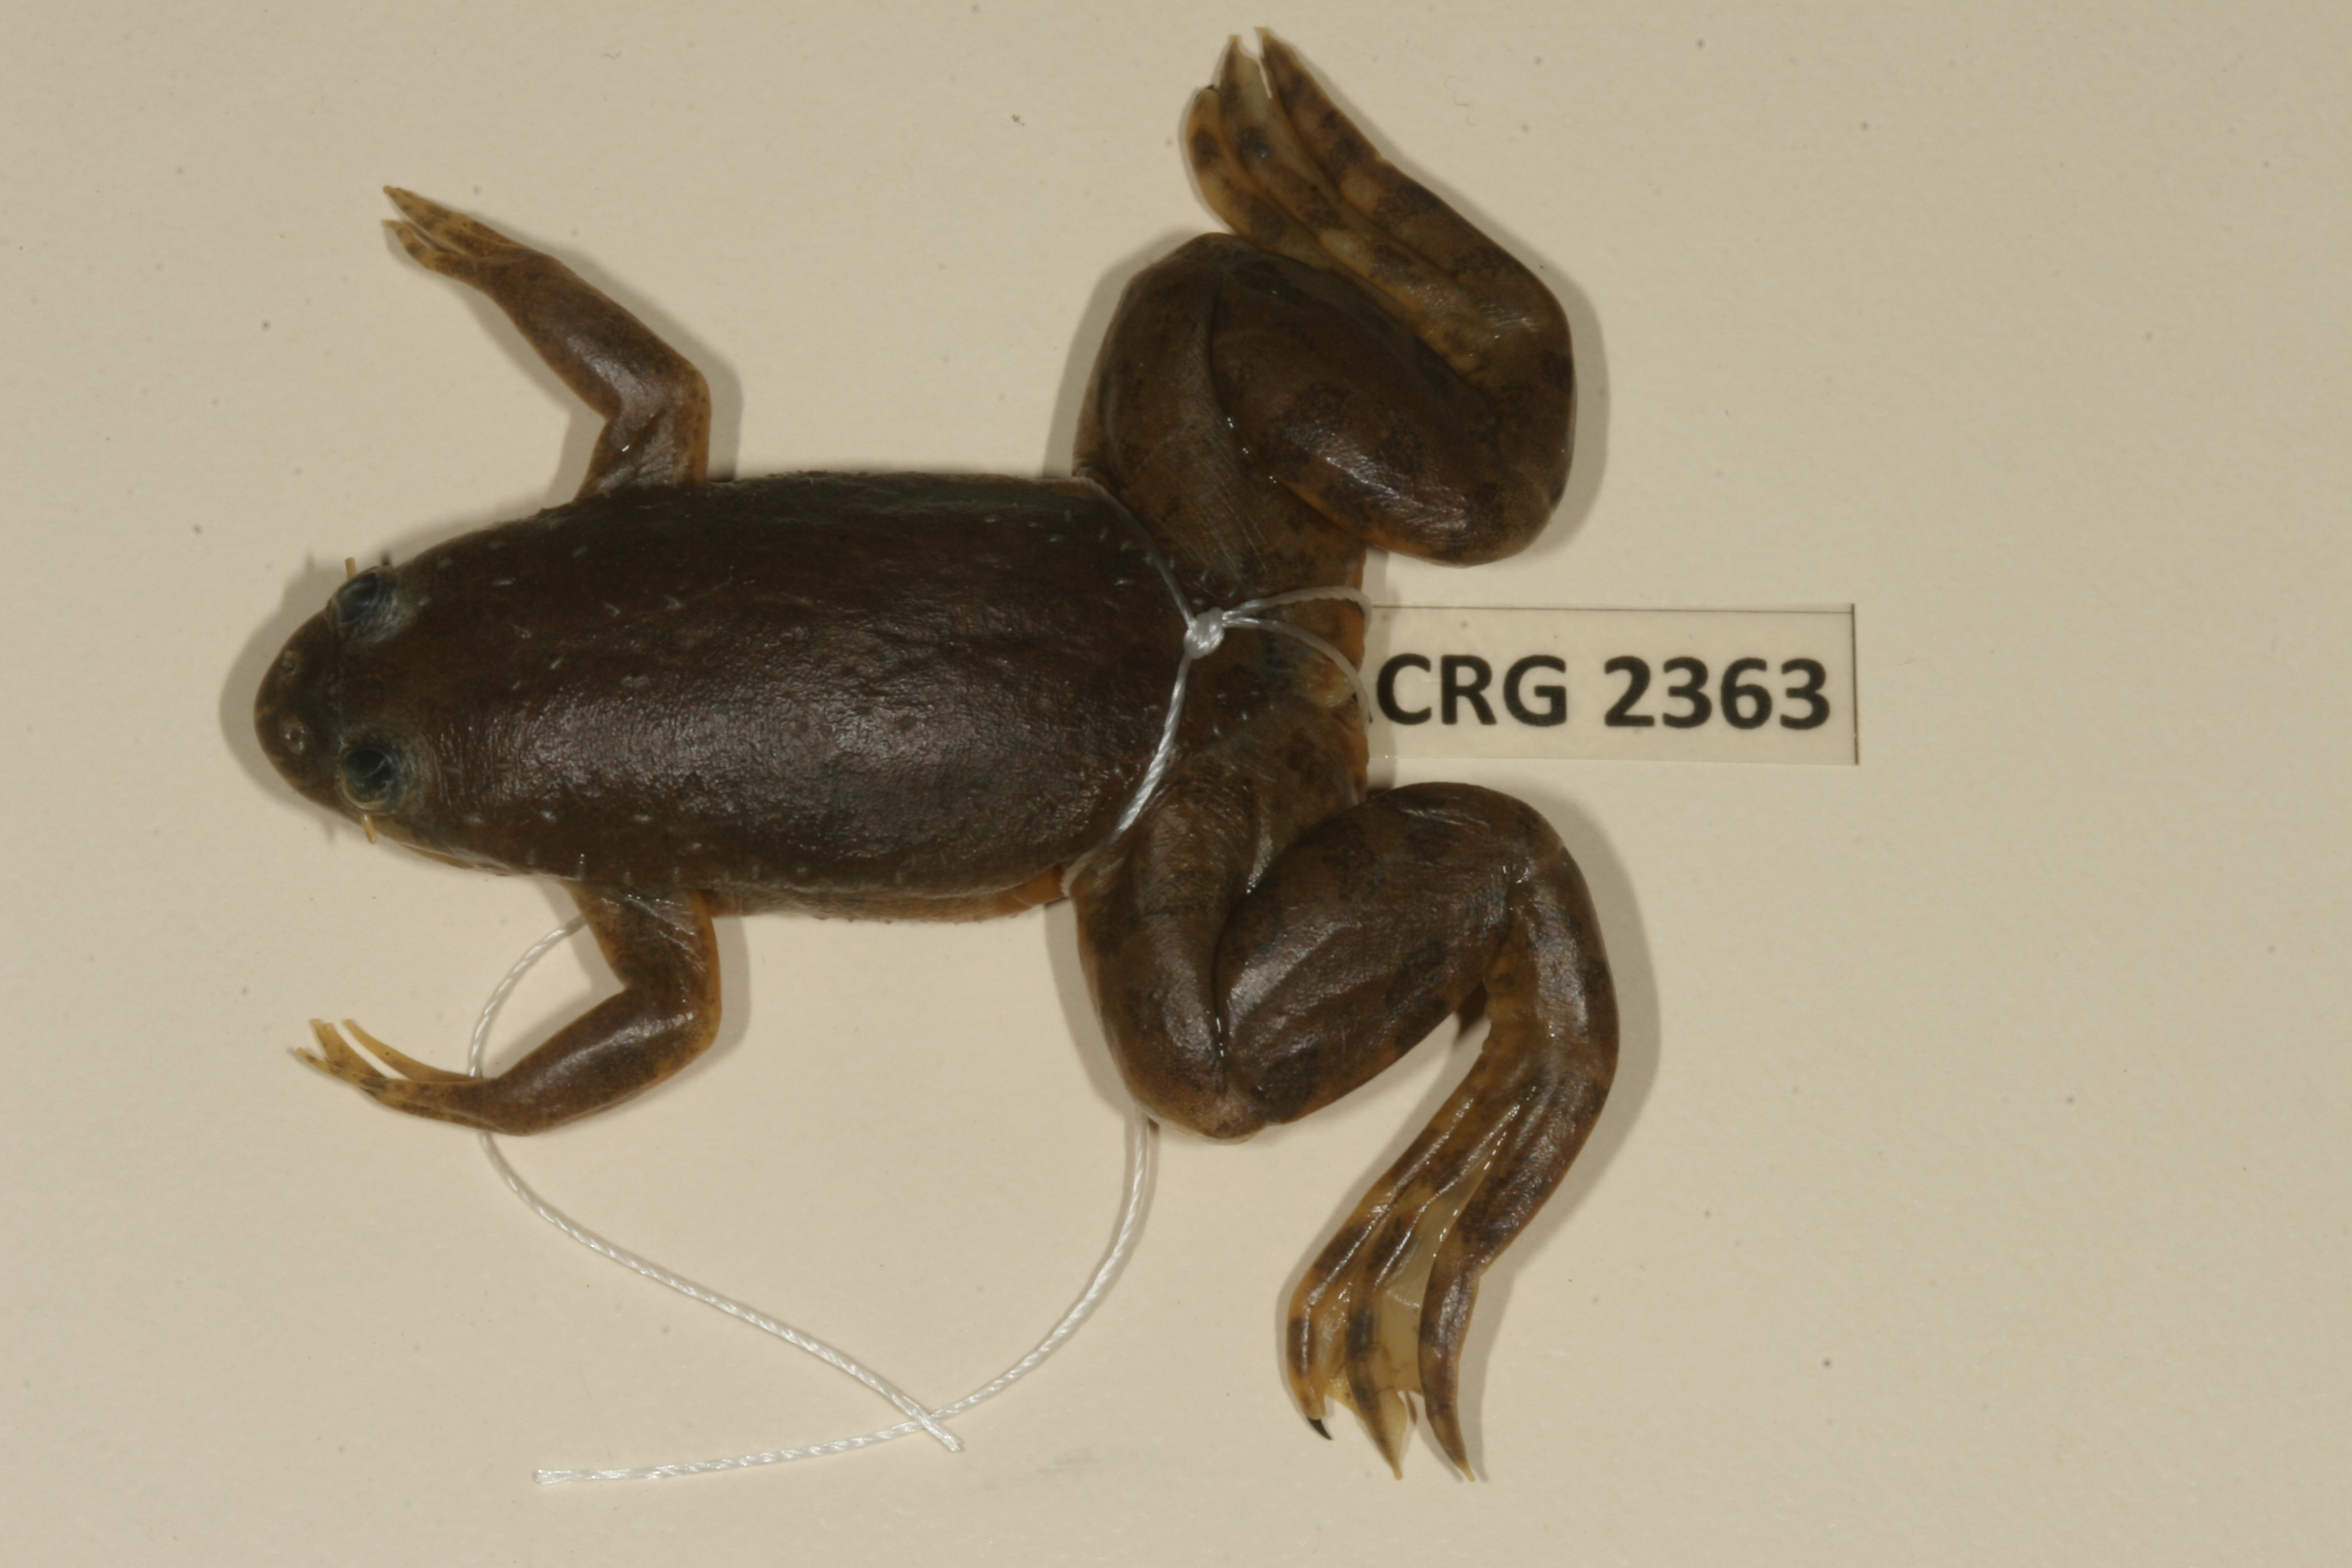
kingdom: Animalia
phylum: Chordata
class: Amphibia
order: Anura
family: Pipidae
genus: Xenopus
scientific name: Xenopus muelleri
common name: Muller's clawed frog
